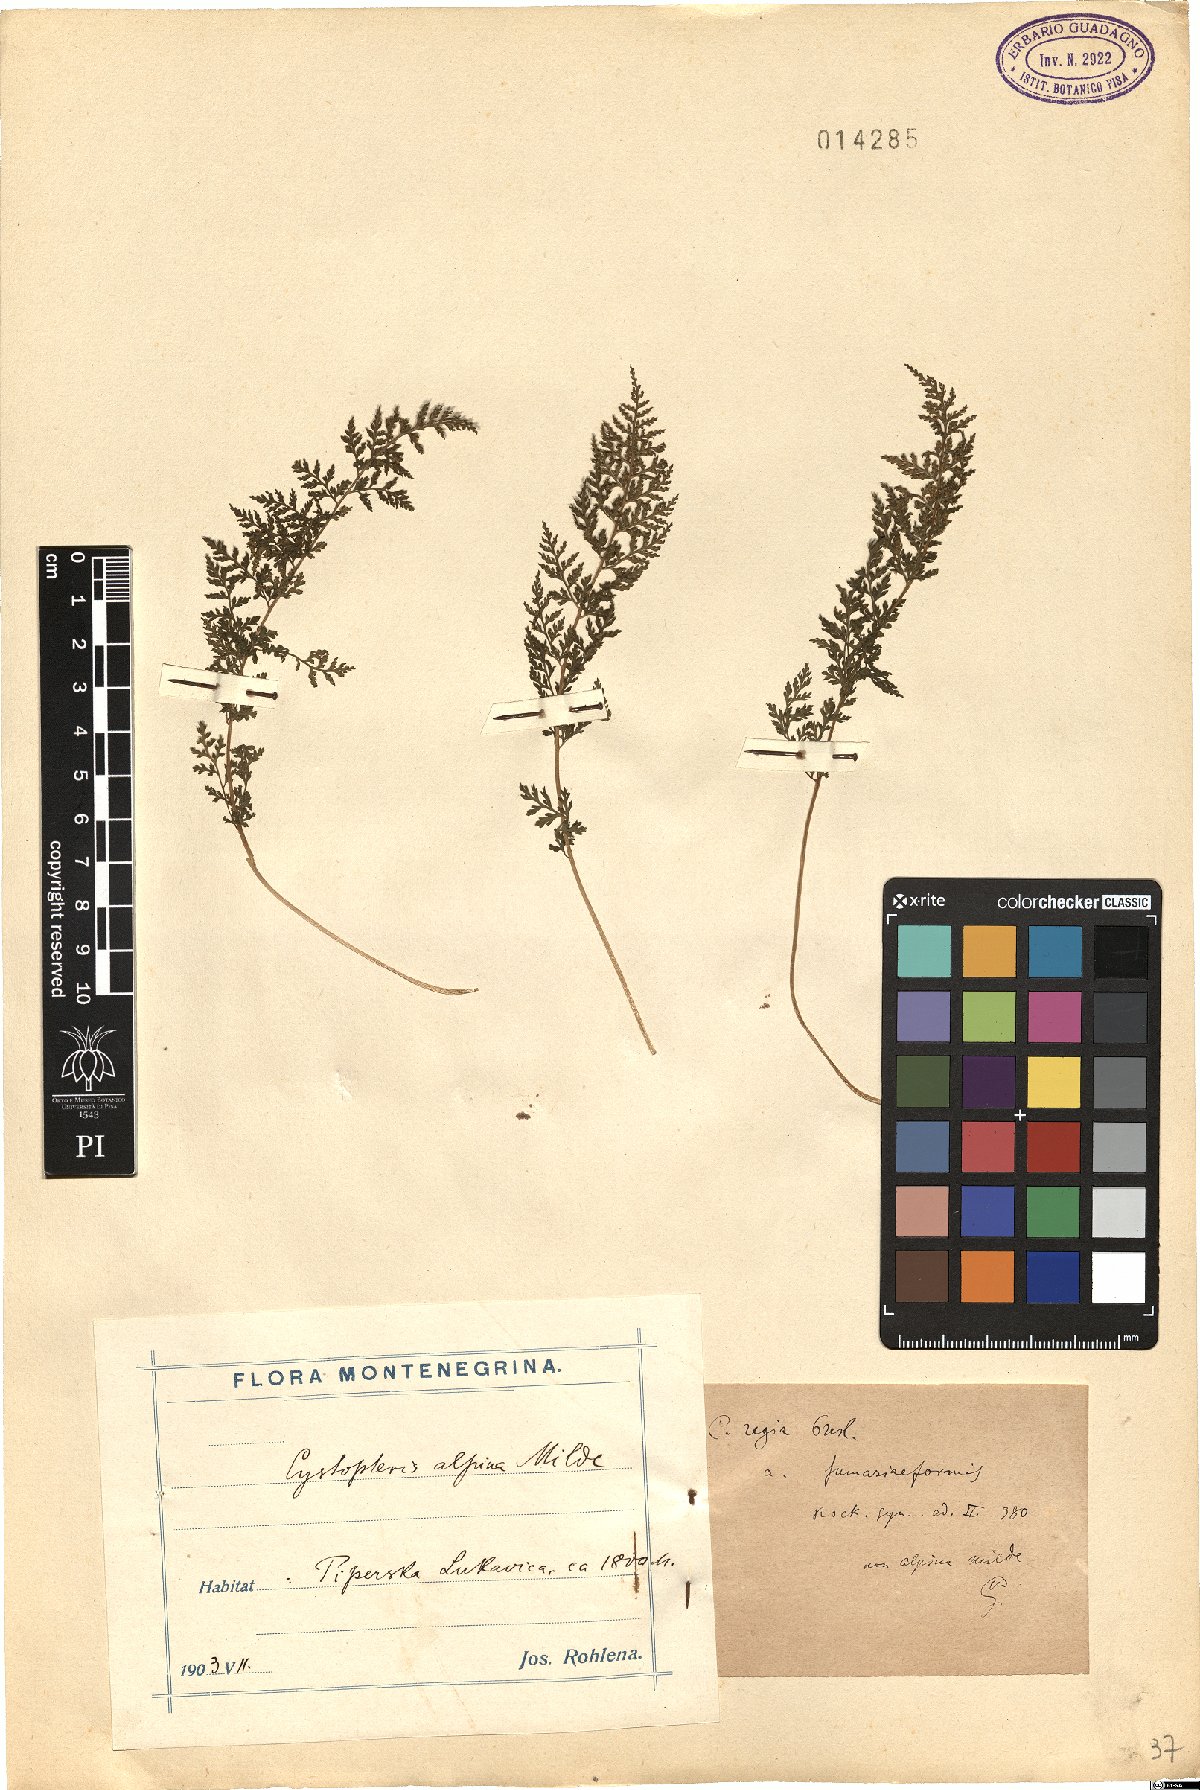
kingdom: Plantae
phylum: Tracheophyta
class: Polypodiopsida
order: Polypodiales
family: Cystopteridaceae
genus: Cystopteris
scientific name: Cystopteris alpina
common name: Alpine bladder-fern
